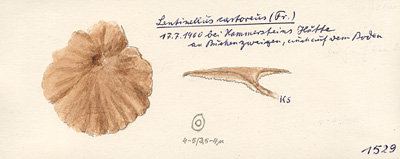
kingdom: Plantae
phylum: Tracheophyta
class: Magnoliopsida
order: Fagales
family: Fagaceae
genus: Fagus
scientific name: Fagus sylvatica
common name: Beech
